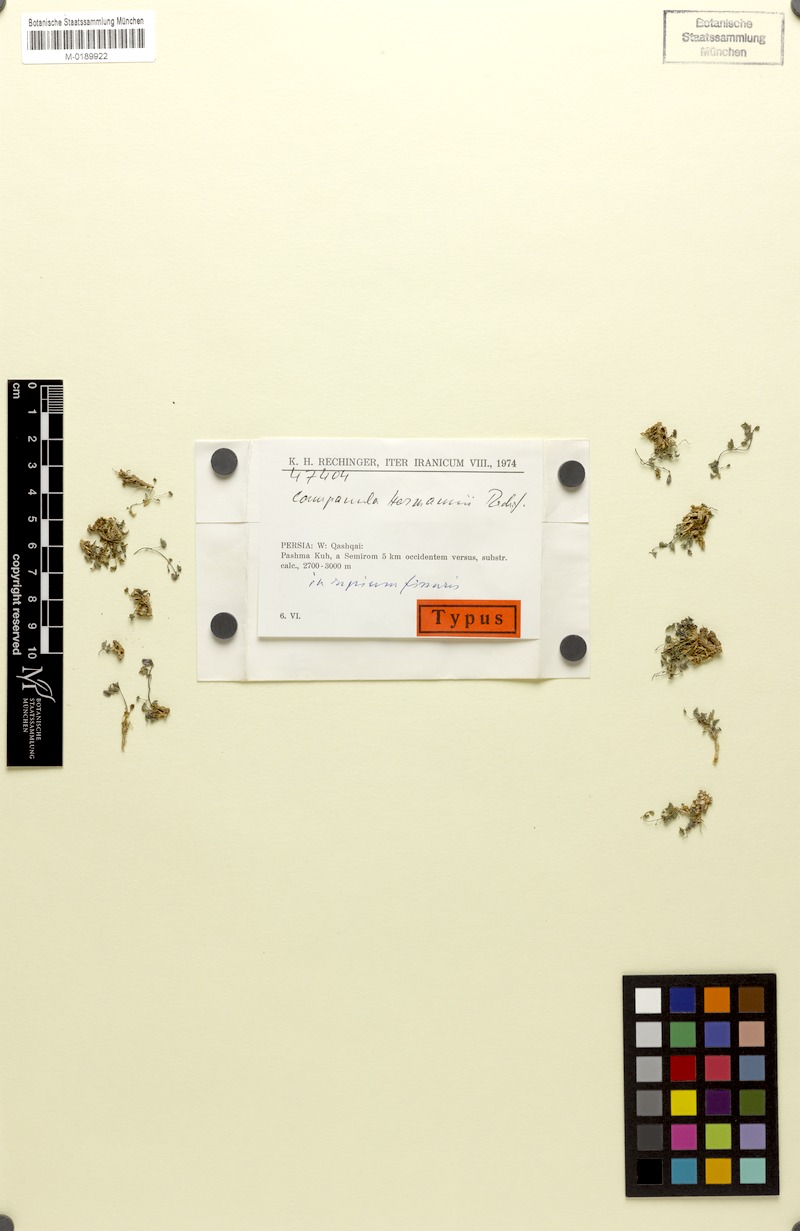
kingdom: Plantae
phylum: Tracheophyta
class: Magnoliopsida
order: Asterales
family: Campanulaceae
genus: Campanula
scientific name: Campanula hermannii
